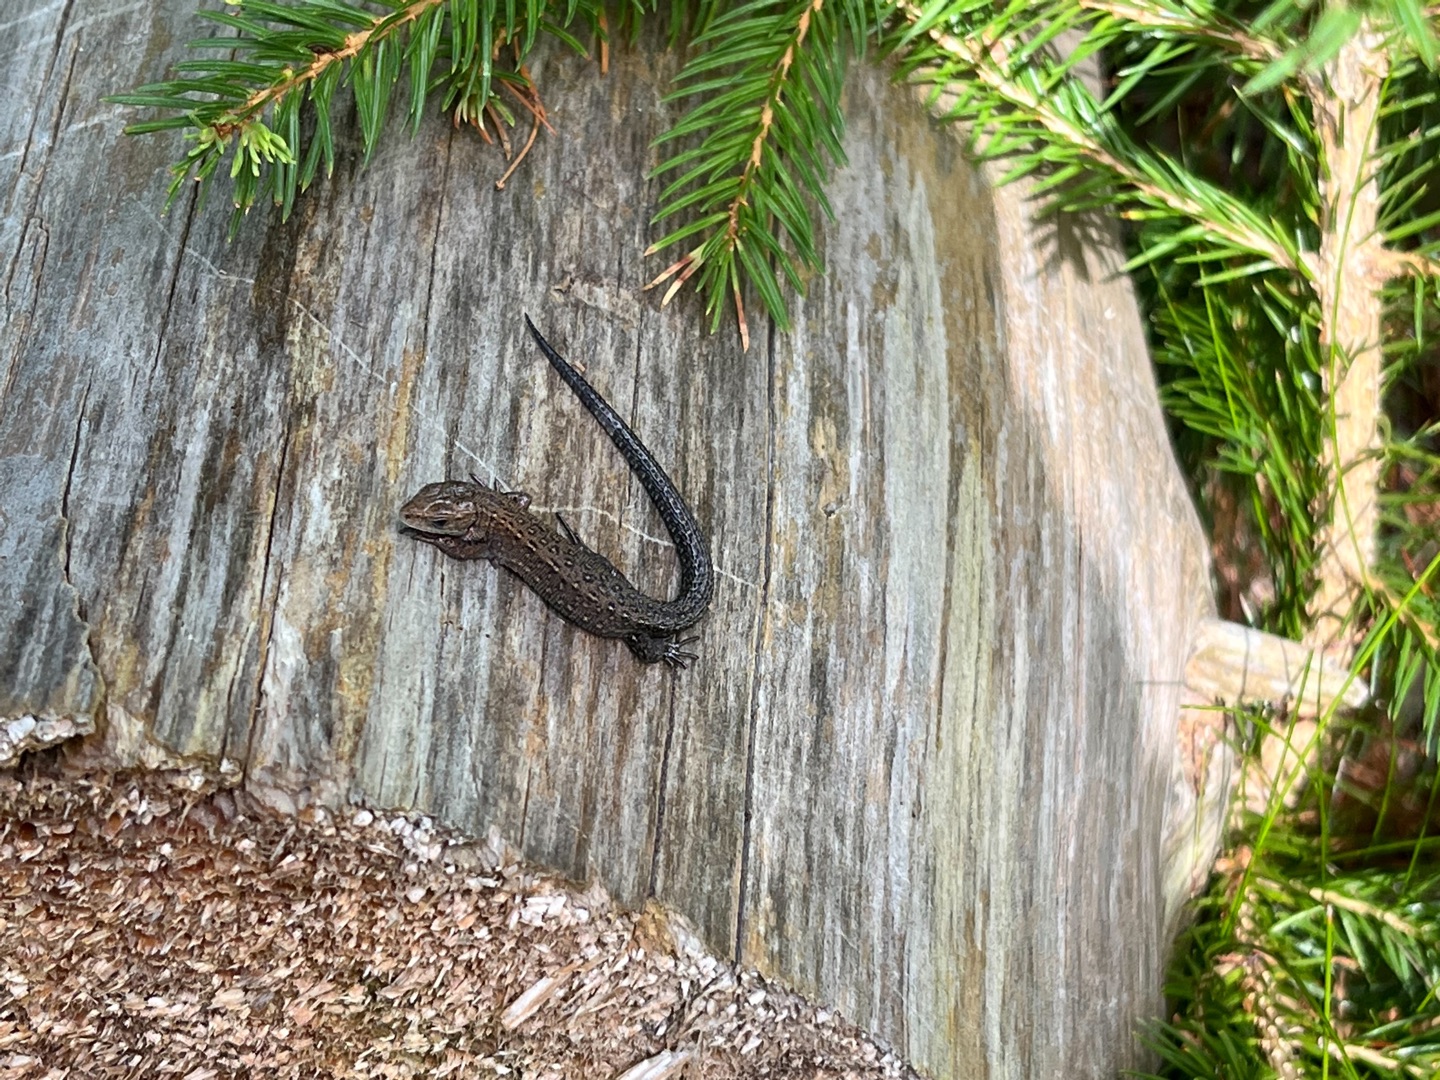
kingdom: Animalia
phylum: Chordata
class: Squamata
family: Lacertidae
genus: Zootoca
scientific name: Zootoca vivipara
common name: Skovfirben
